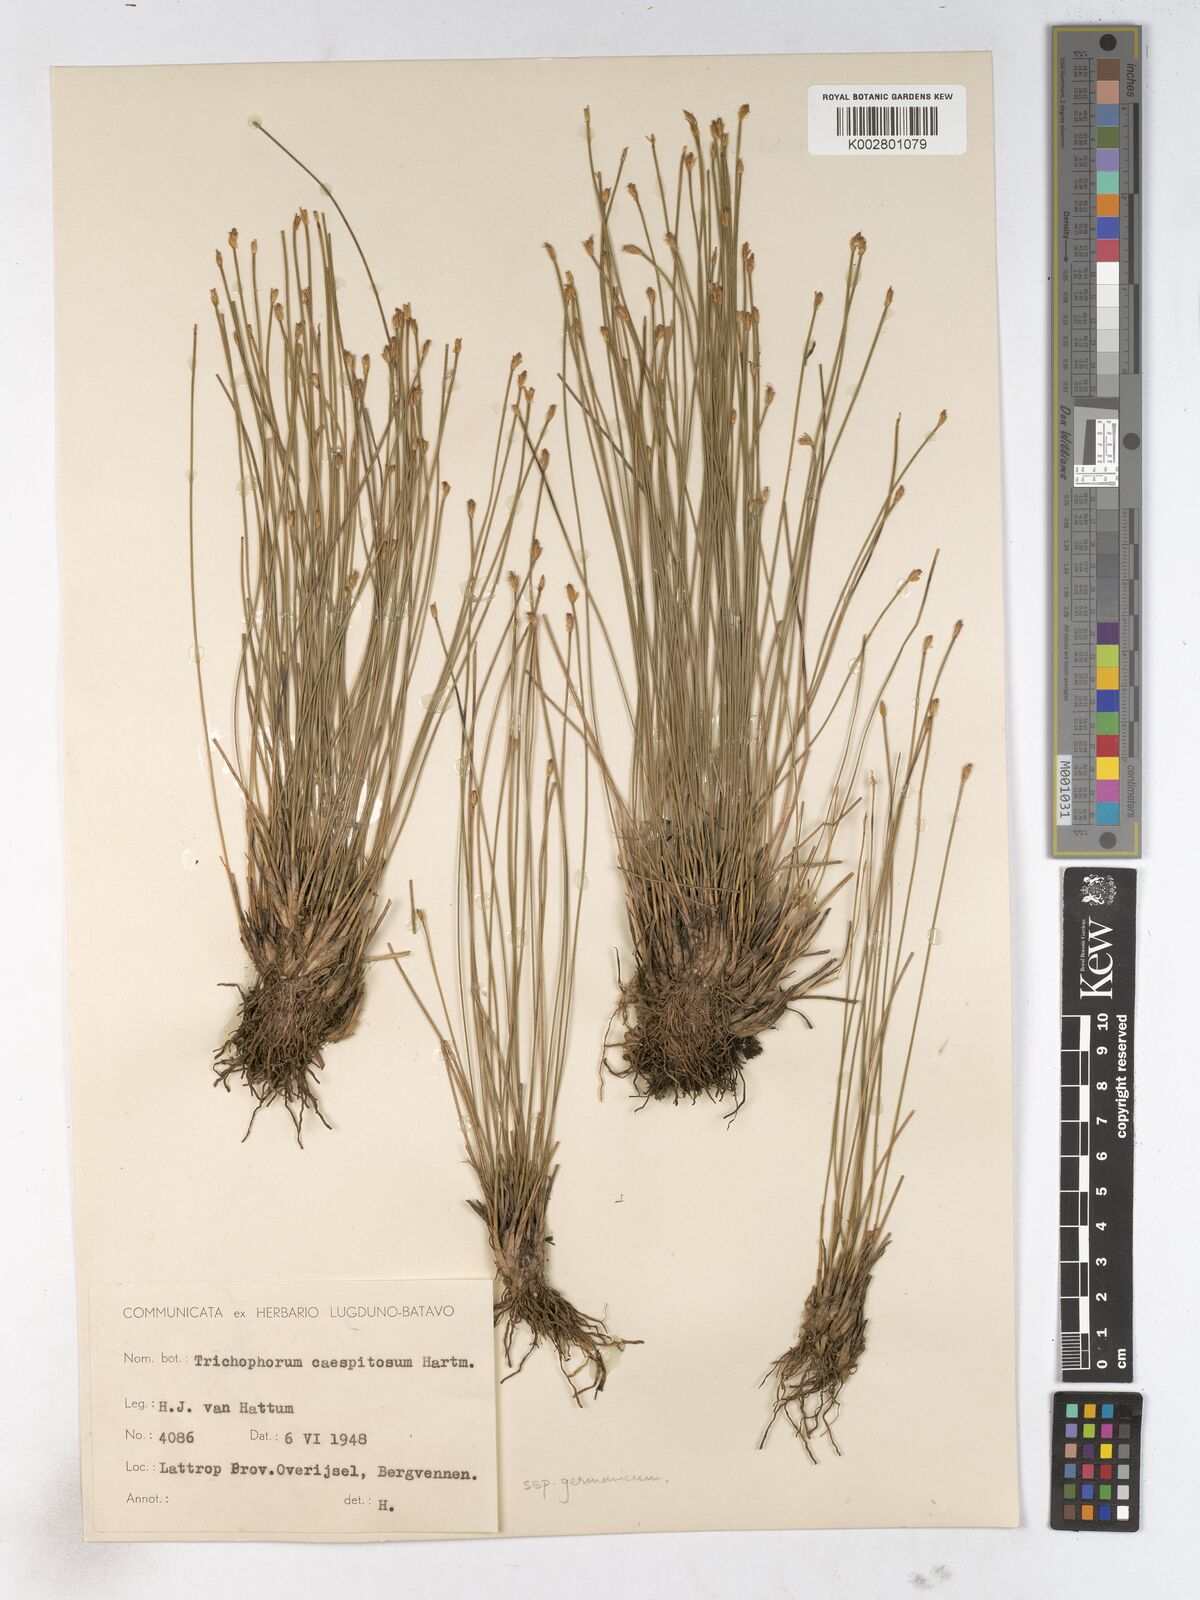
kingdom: Plantae
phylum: Tracheophyta
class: Liliopsida
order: Poales
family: Cyperaceae
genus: Trichophorum
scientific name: Trichophorum cespitosum
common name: Cespitose bulrush
